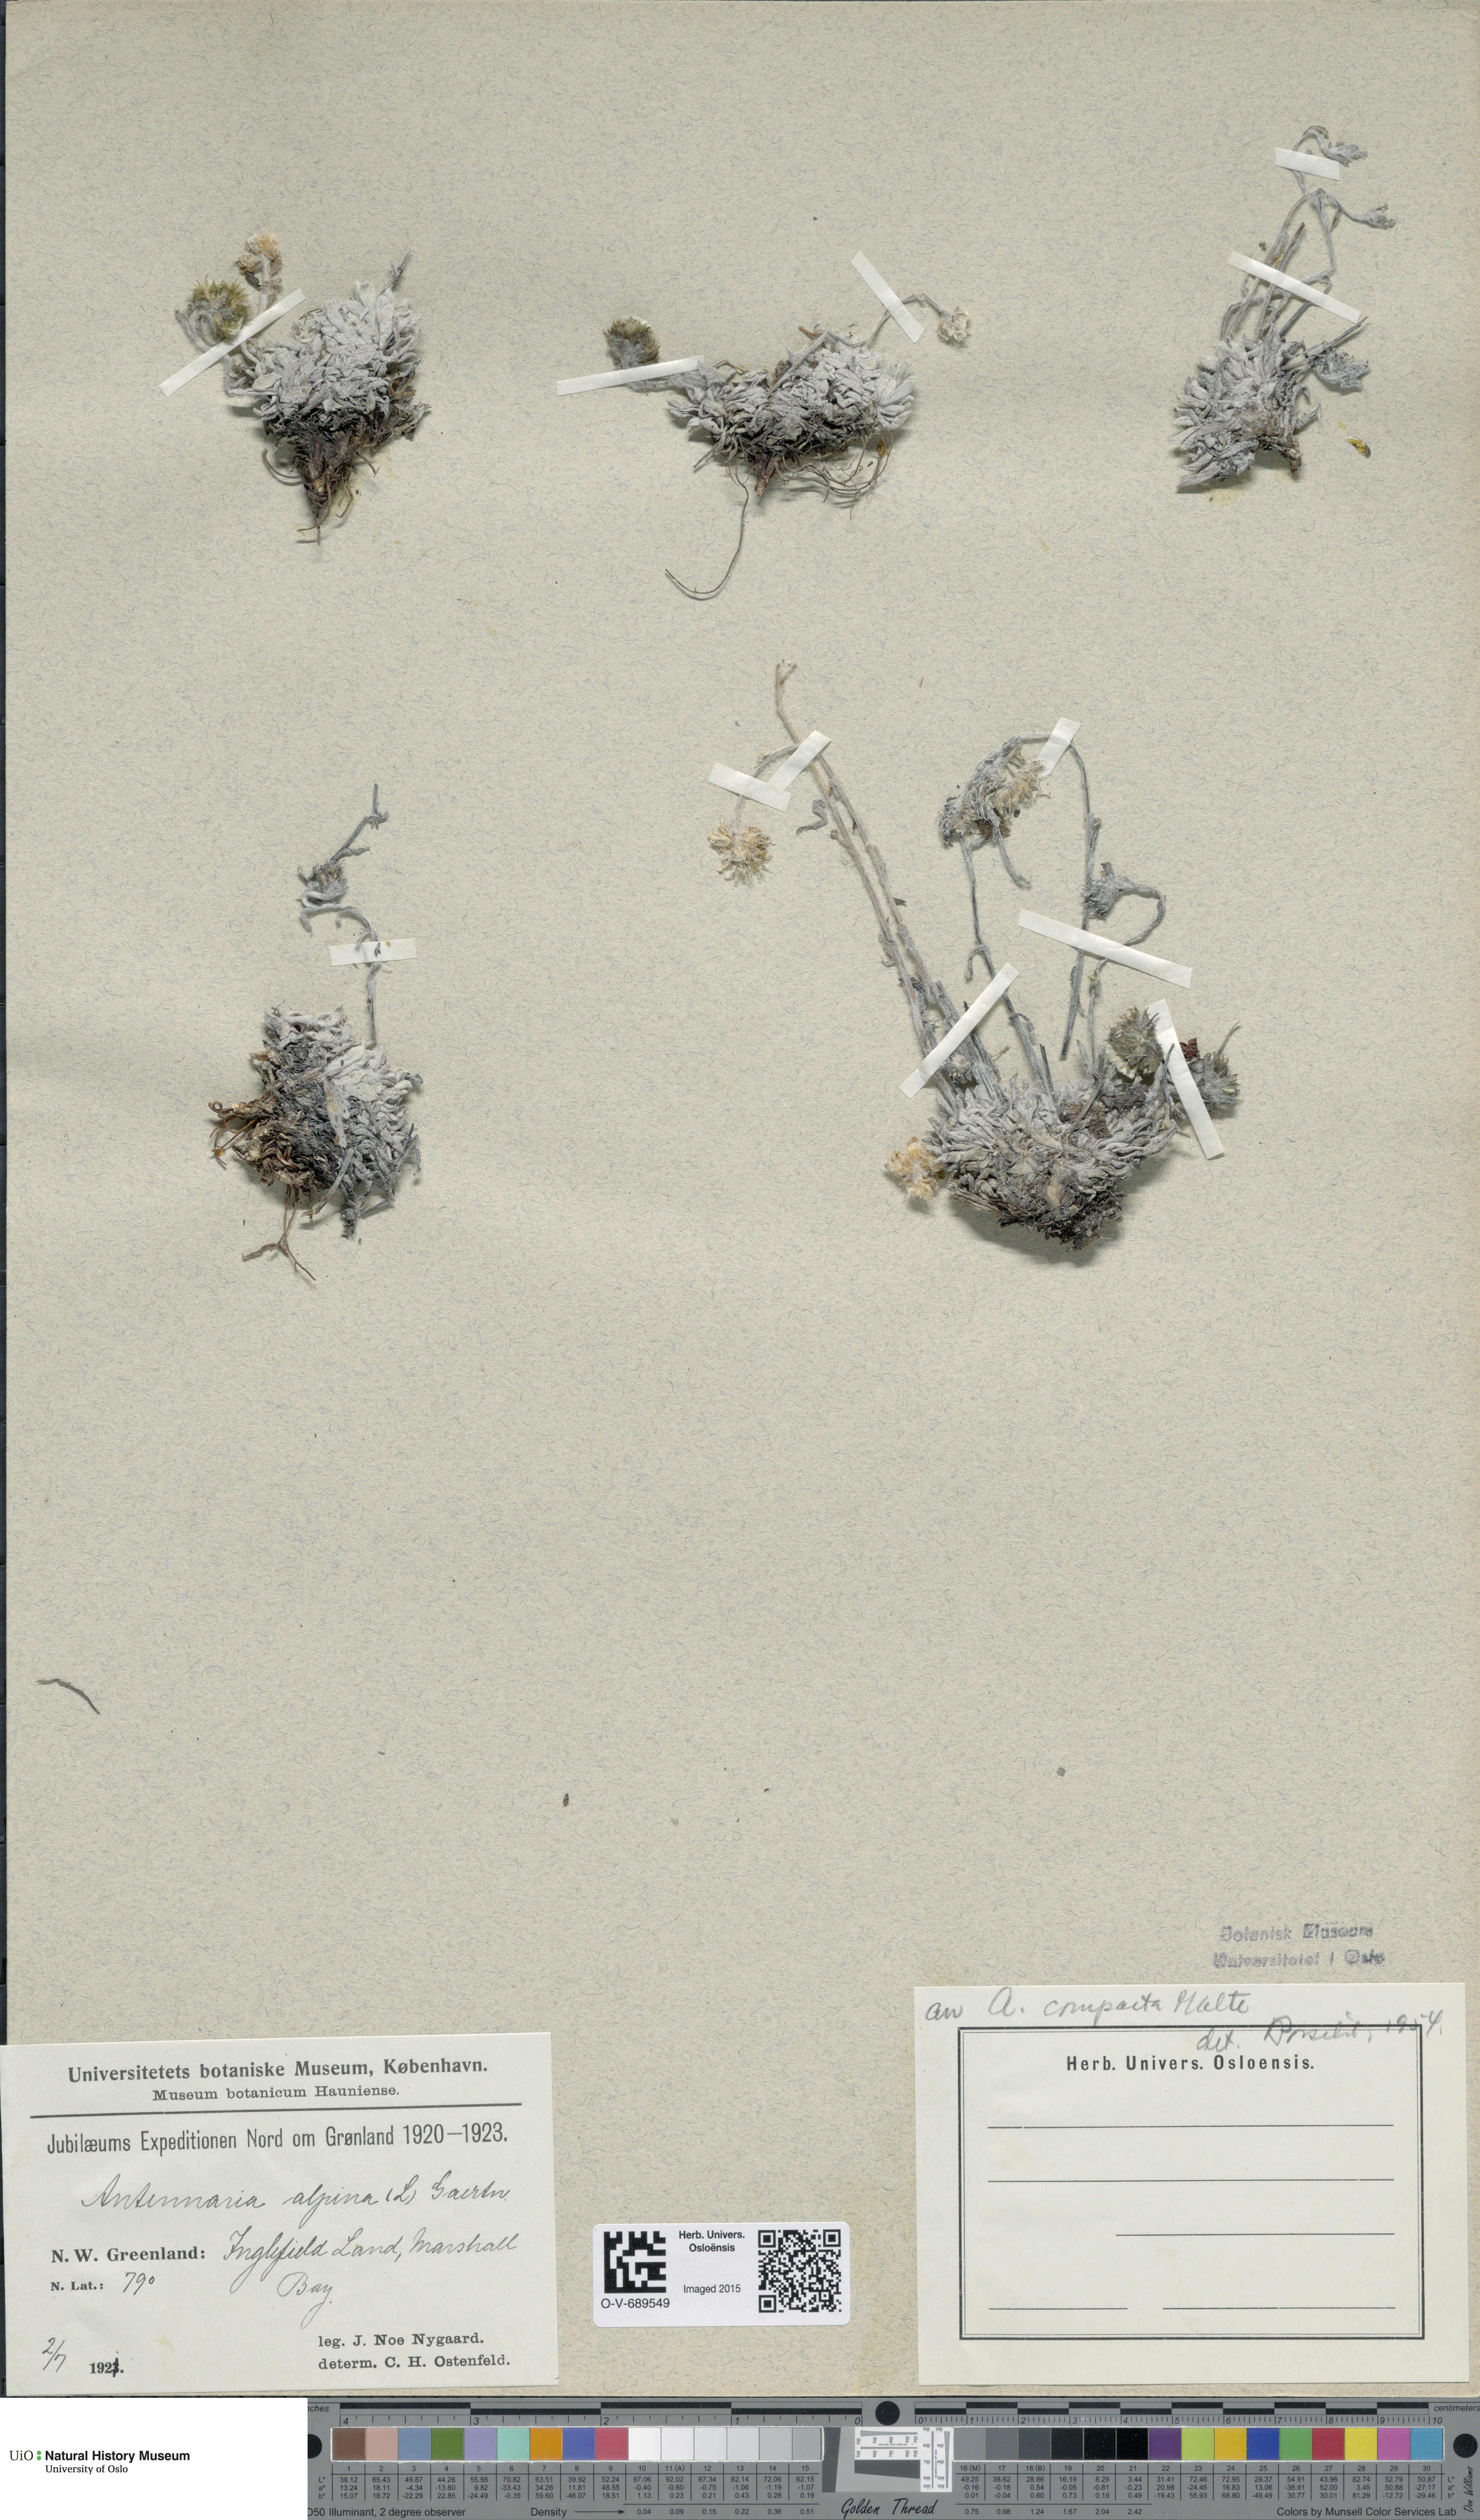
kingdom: Plantae
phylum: Tracheophyta
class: Magnoliopsida
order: Asterales
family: Asteraceae
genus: Antennaria
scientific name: Antennaria alpina
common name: Alpine pussytoes
